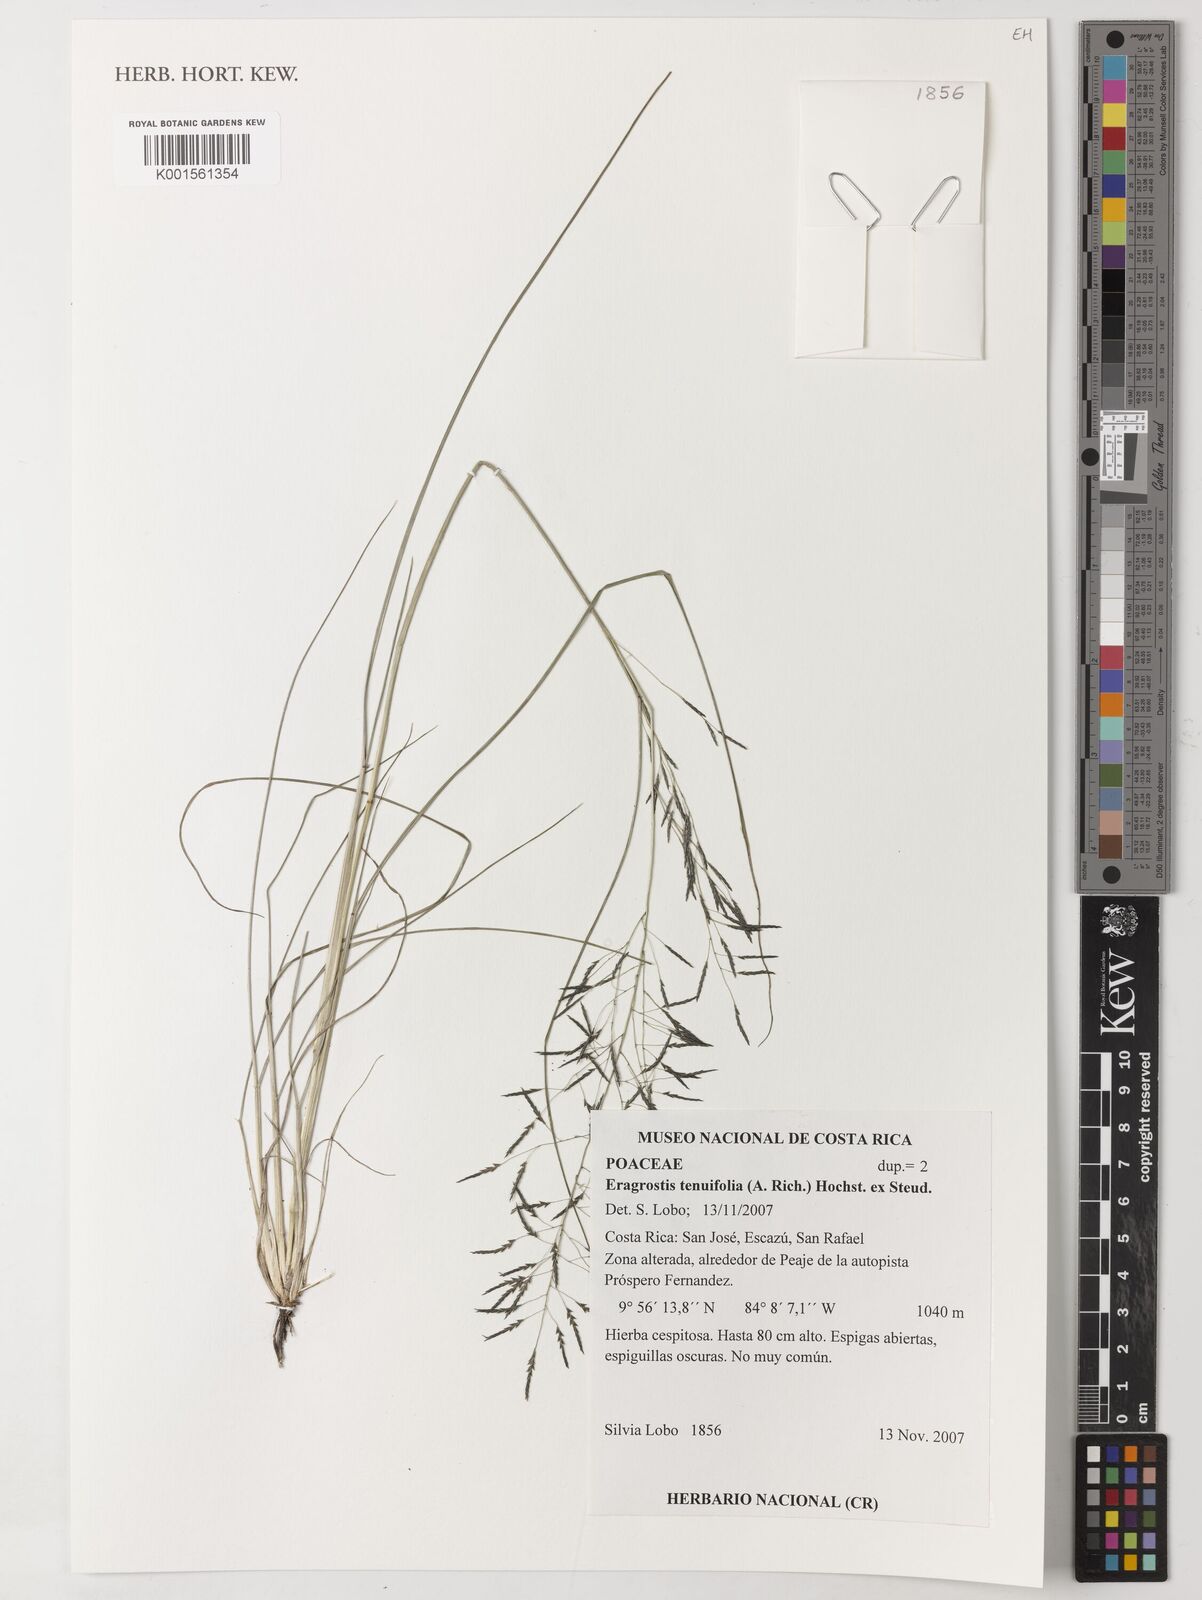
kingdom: Plantae
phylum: Tracheophyta
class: Liliopsida
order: Poales
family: Poaceae
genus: Eragrostis
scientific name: Eragrostis pilosa
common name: Indian lovegrass
